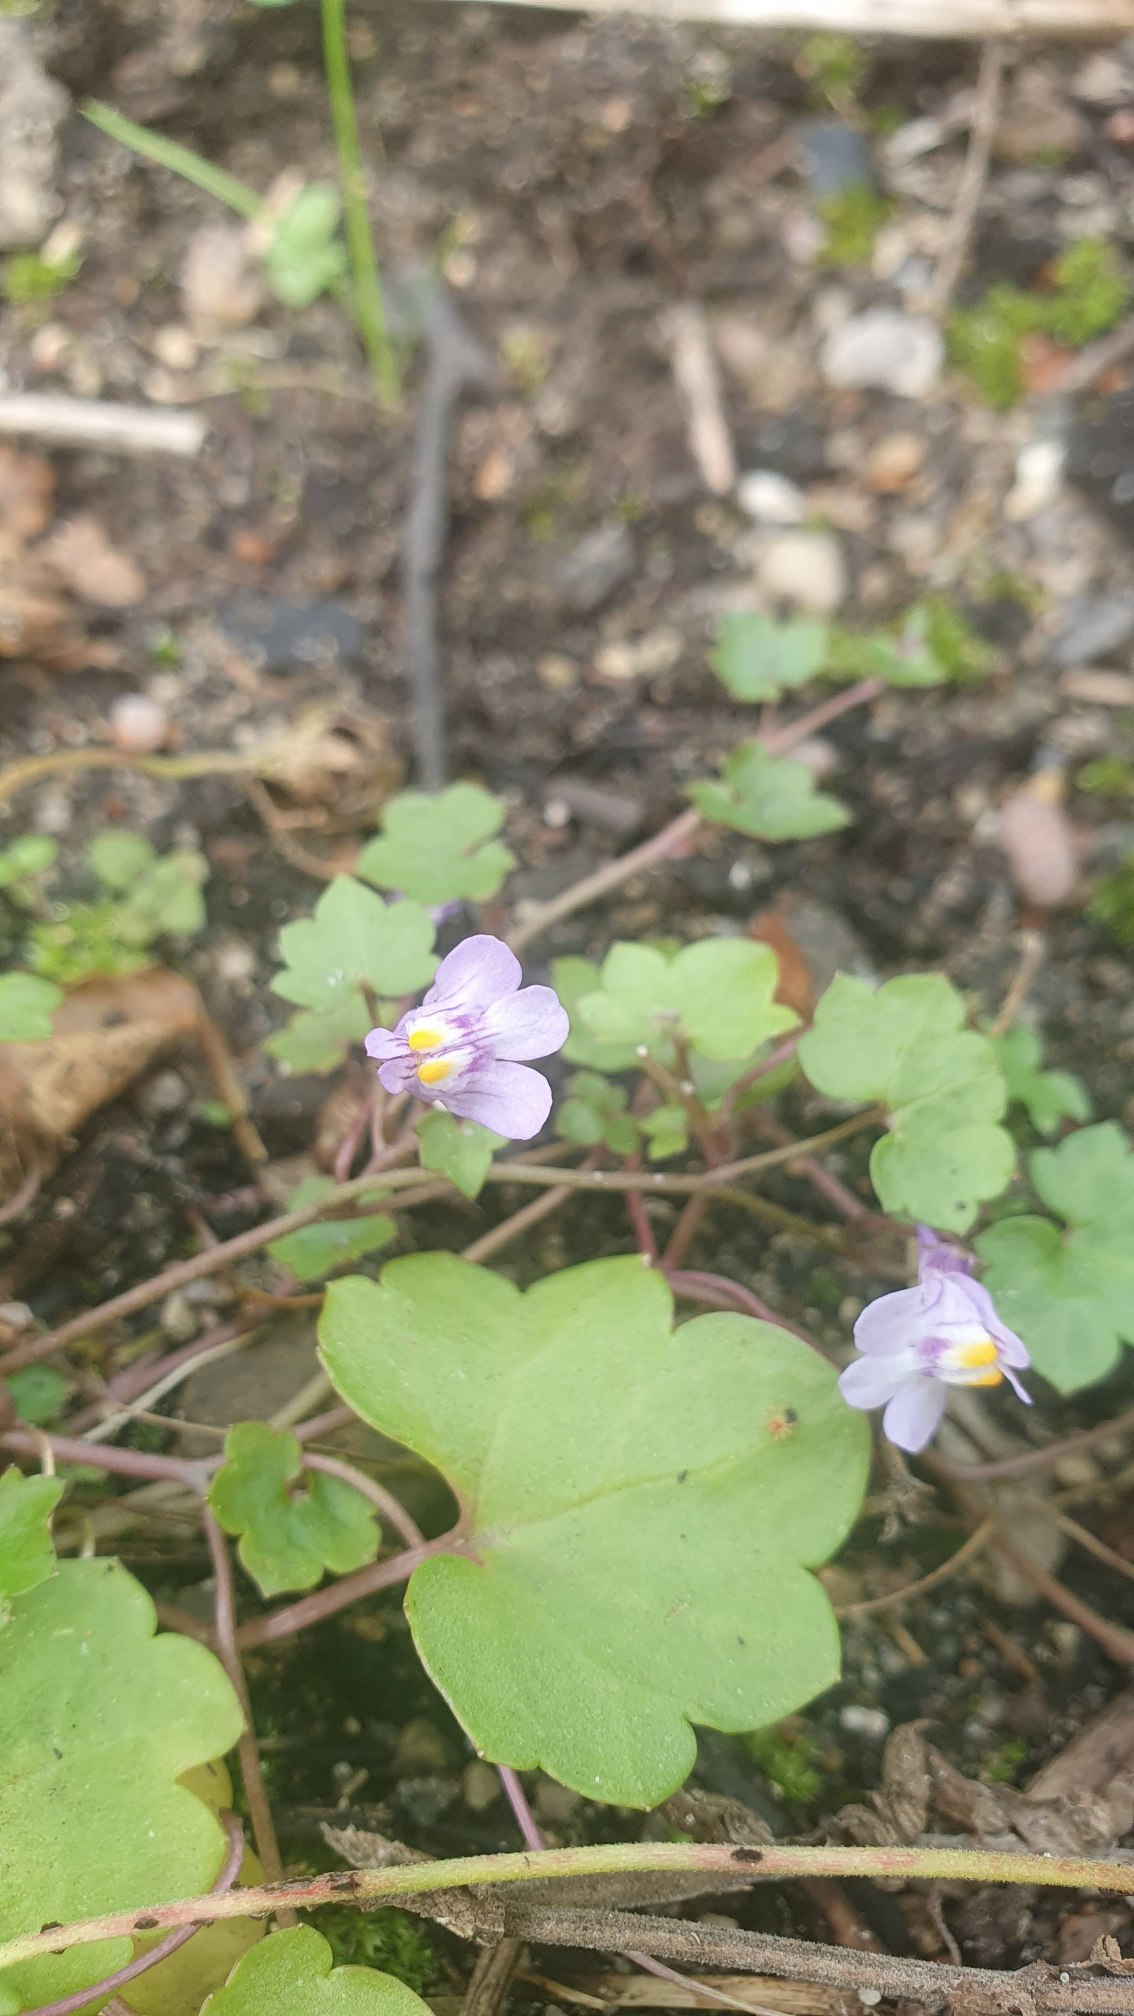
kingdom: Plantae
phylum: Tracheophyta
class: Magnoliopsida
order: Lamiales
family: Plantaginaceae
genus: Cymbalaria
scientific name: Cymbalaria muralis
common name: Vedbend-torskemund
